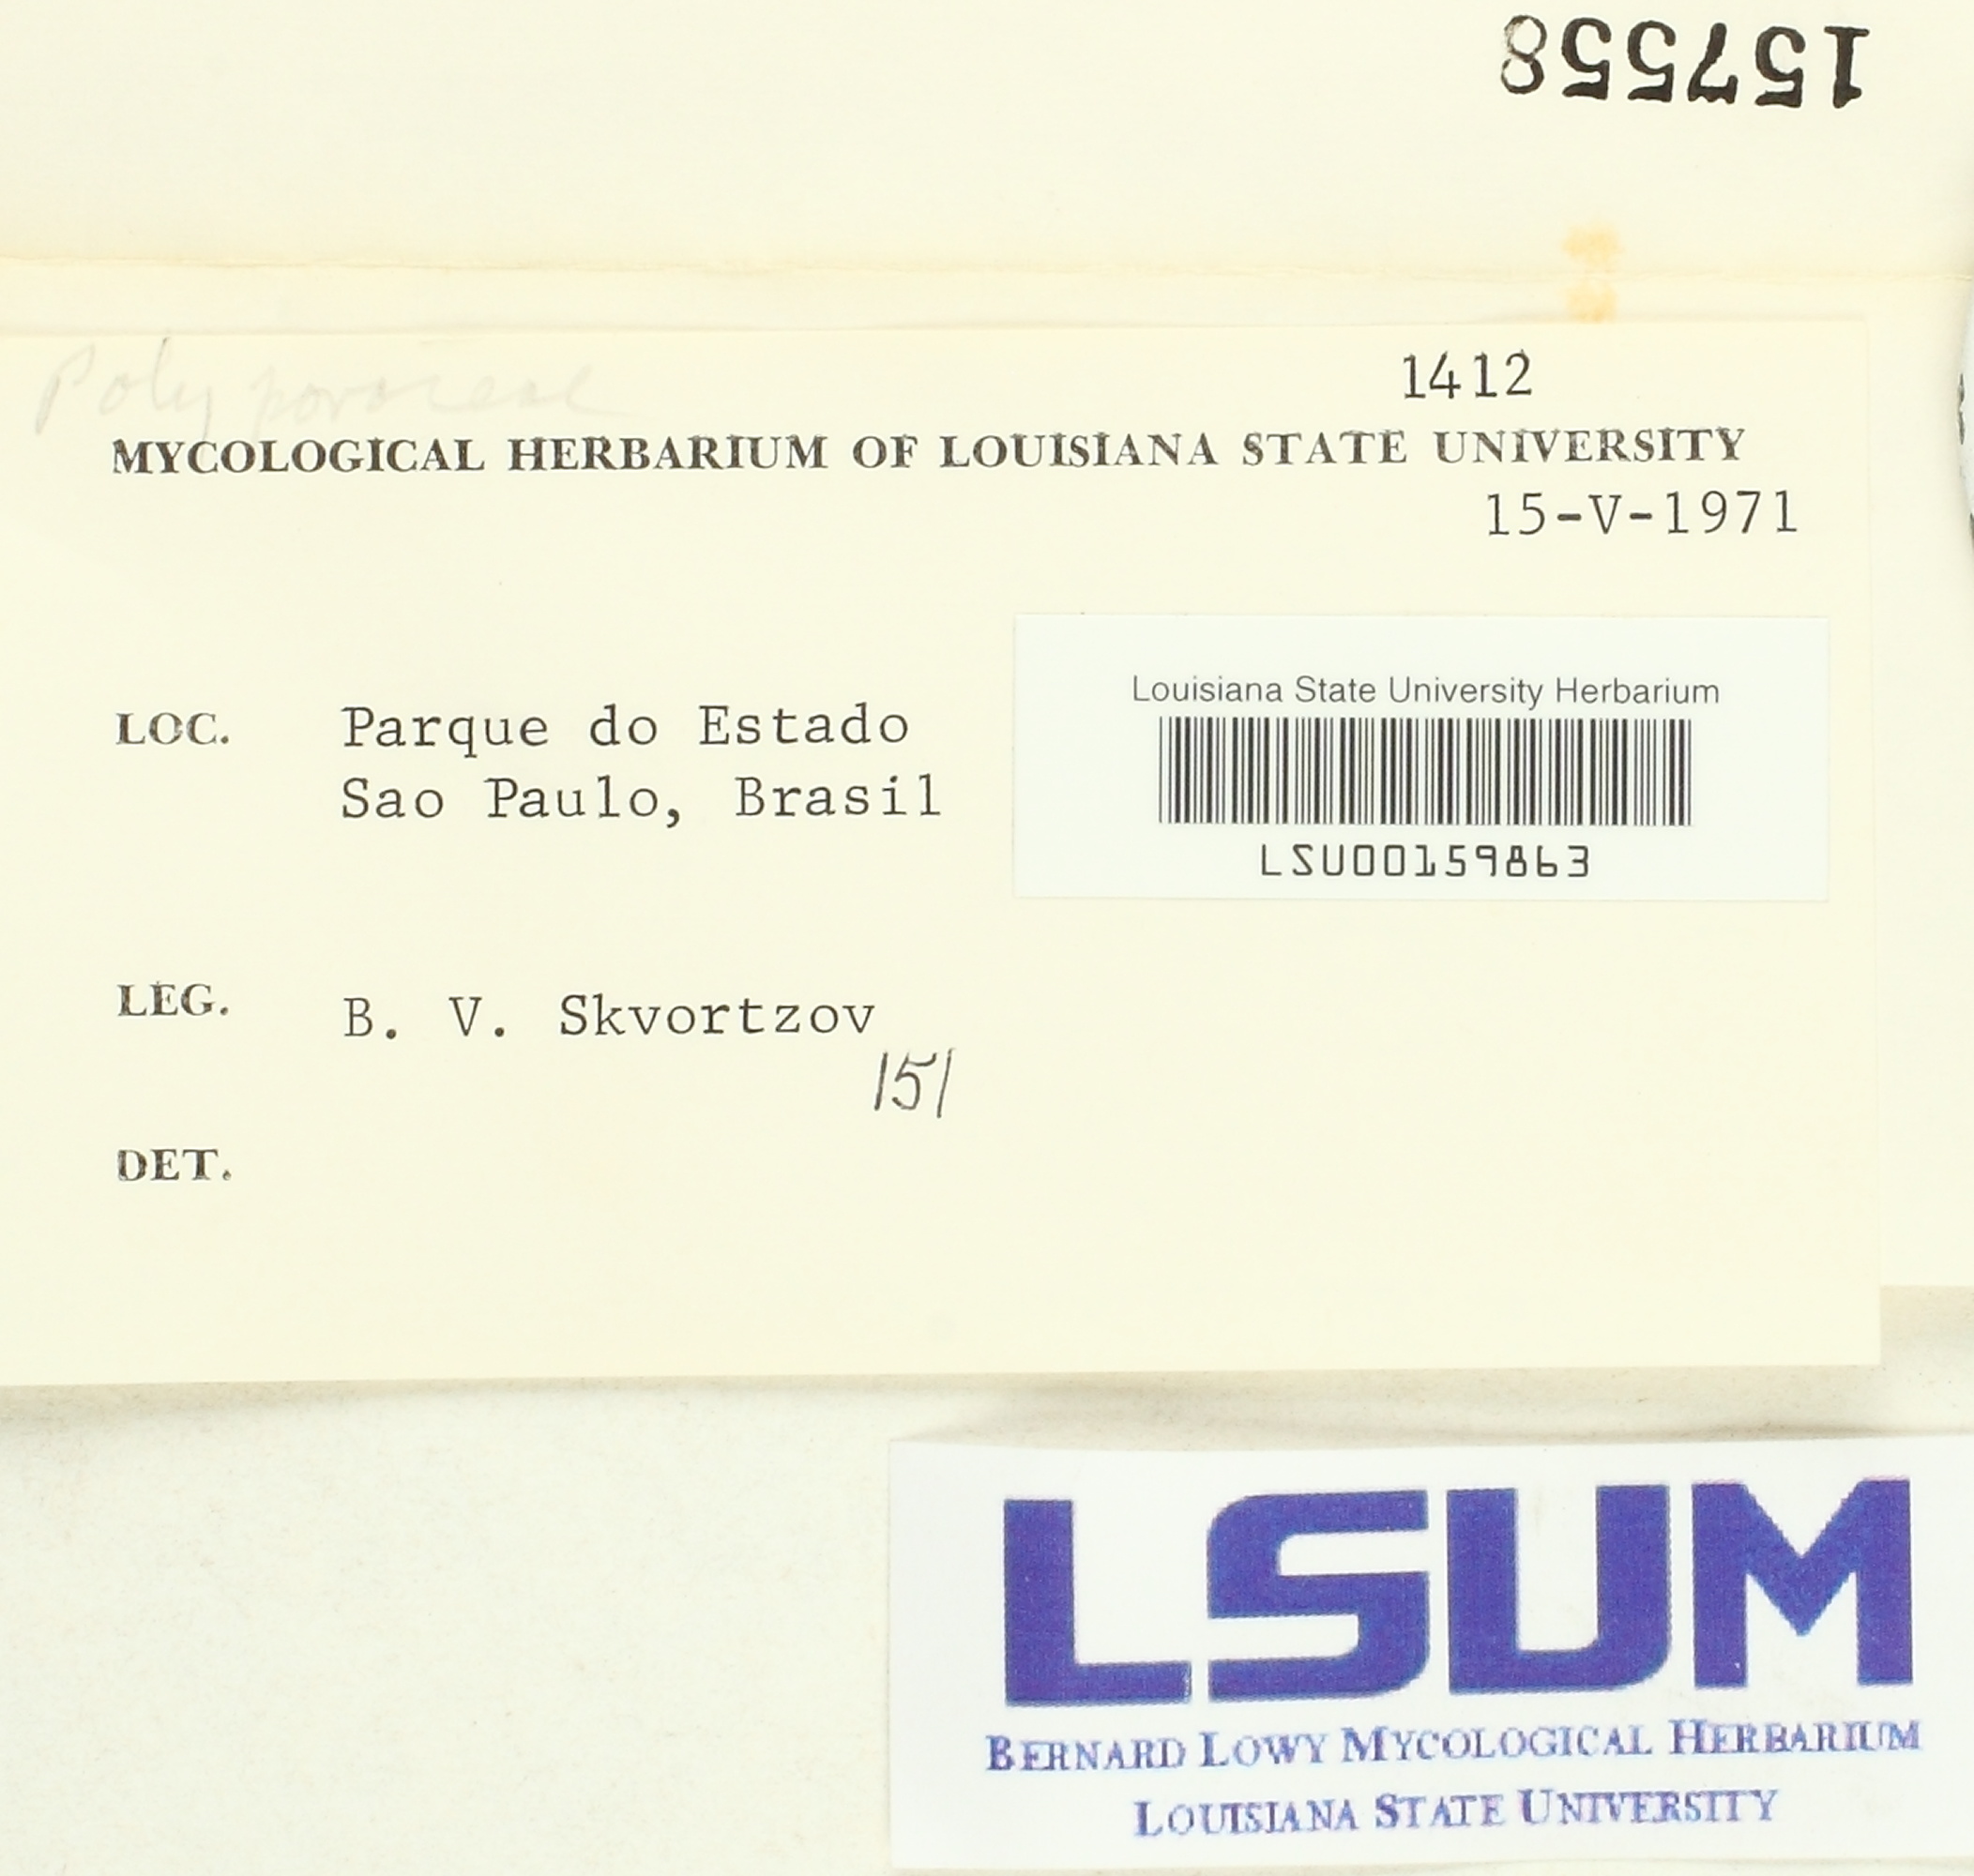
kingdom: Fungi
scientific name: Fungi
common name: Fungi
